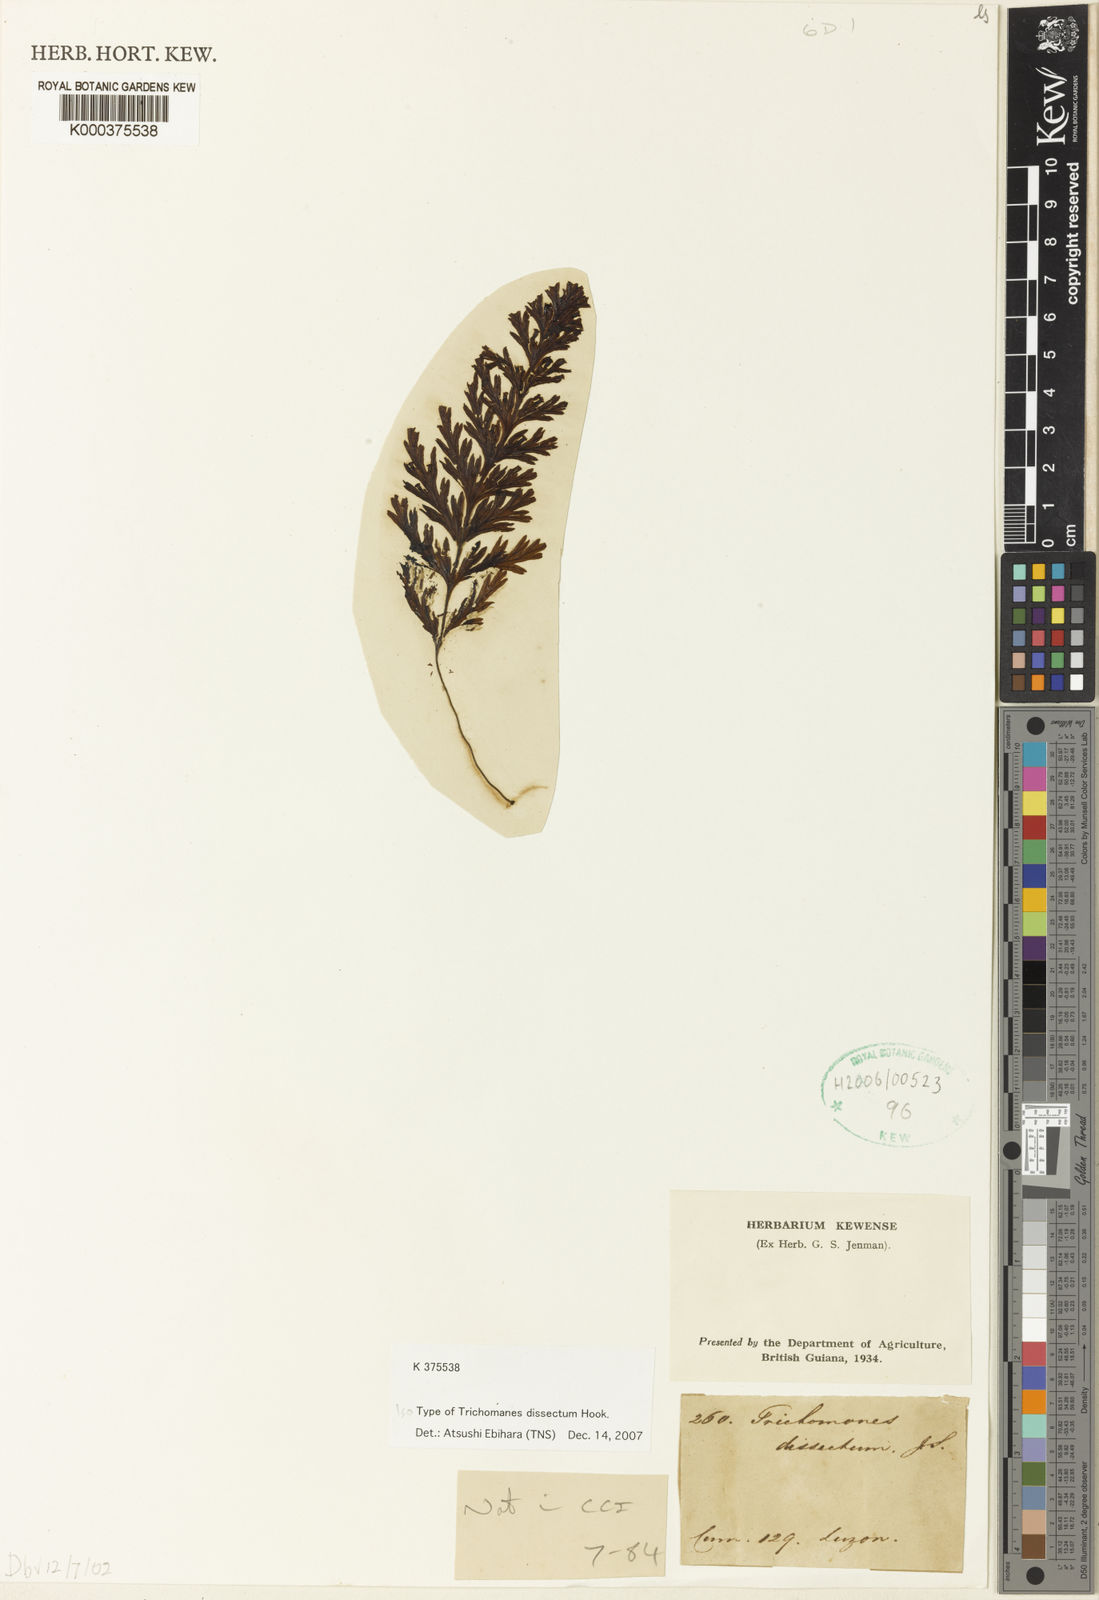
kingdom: Plantae
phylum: Tracheophyta
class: Polypodiopsida
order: Hymenophyllales
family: Hymenophyllaceae
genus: Trichomanes
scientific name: Trichomanes
